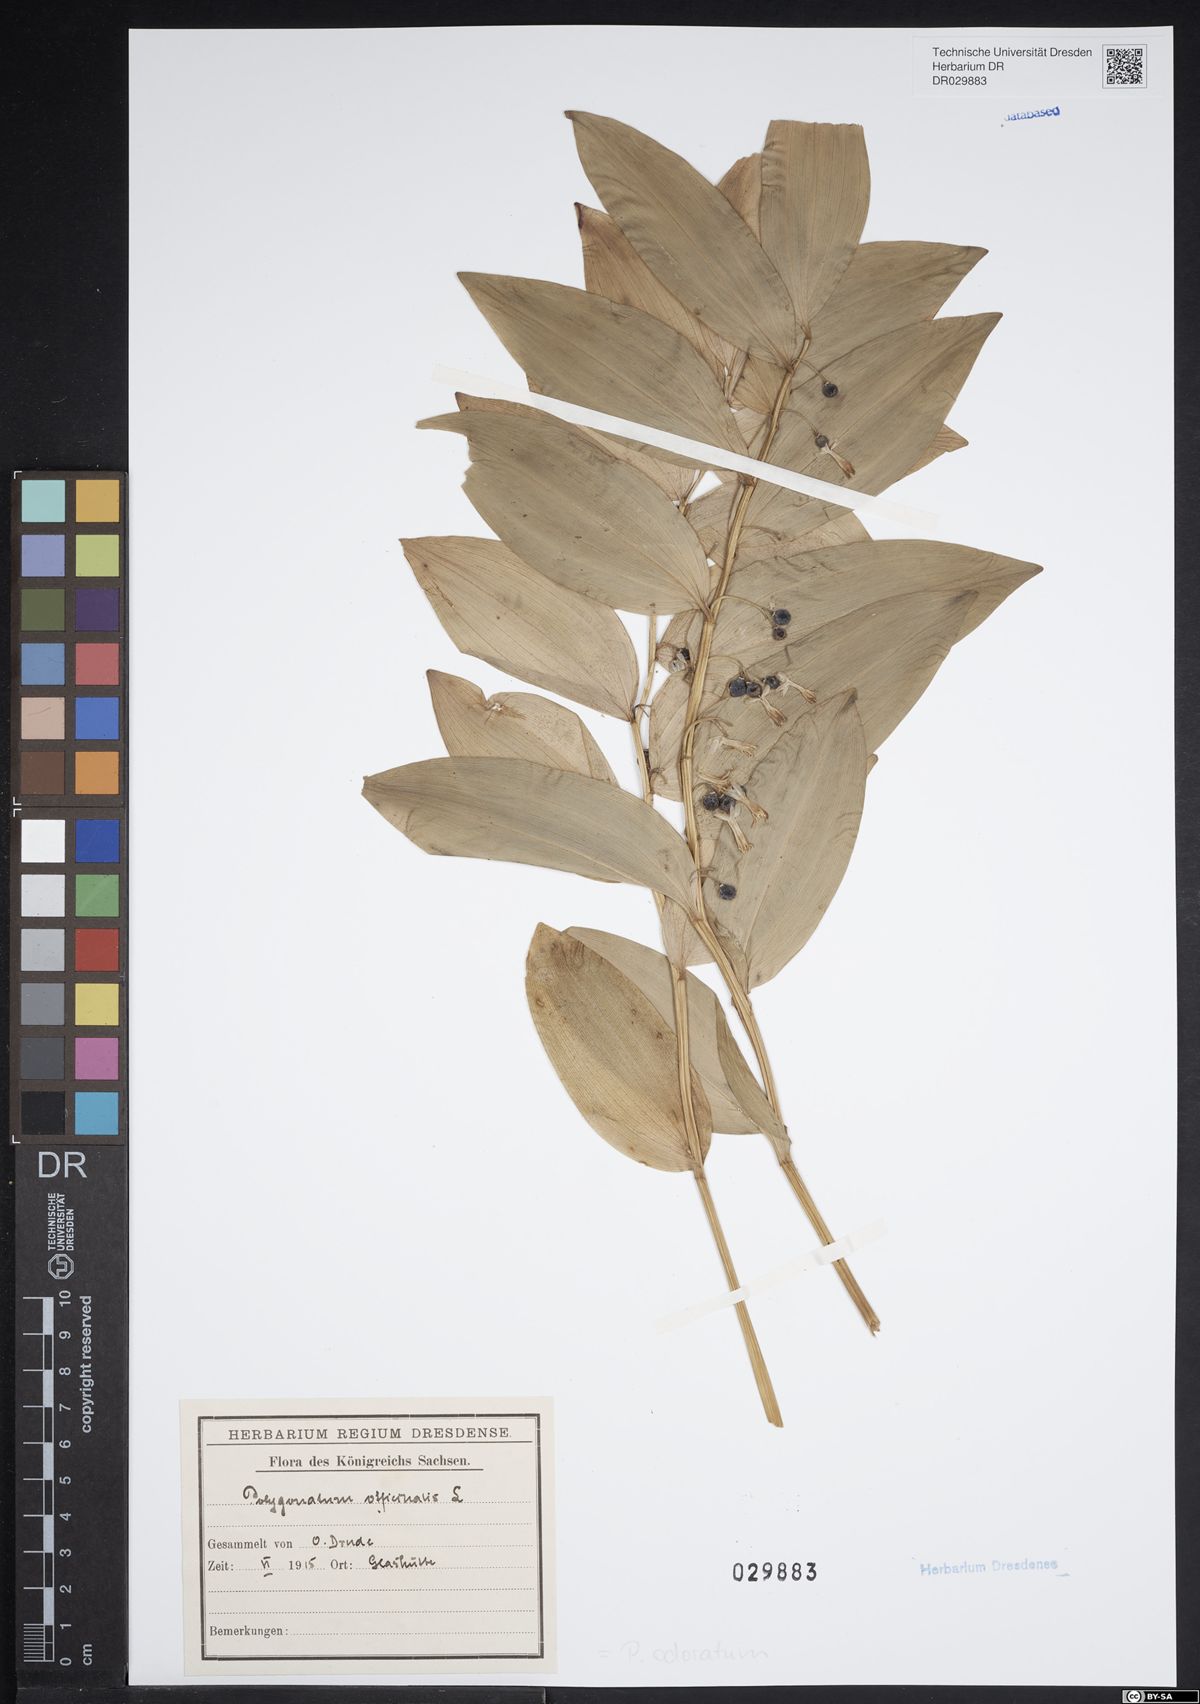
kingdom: Plantae
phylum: Tracheophyta
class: Liliopsida
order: Asparagales
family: Asparagaceae
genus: Polygonatum
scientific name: Polygonatum odoratum
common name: Angular solomon's-seal
